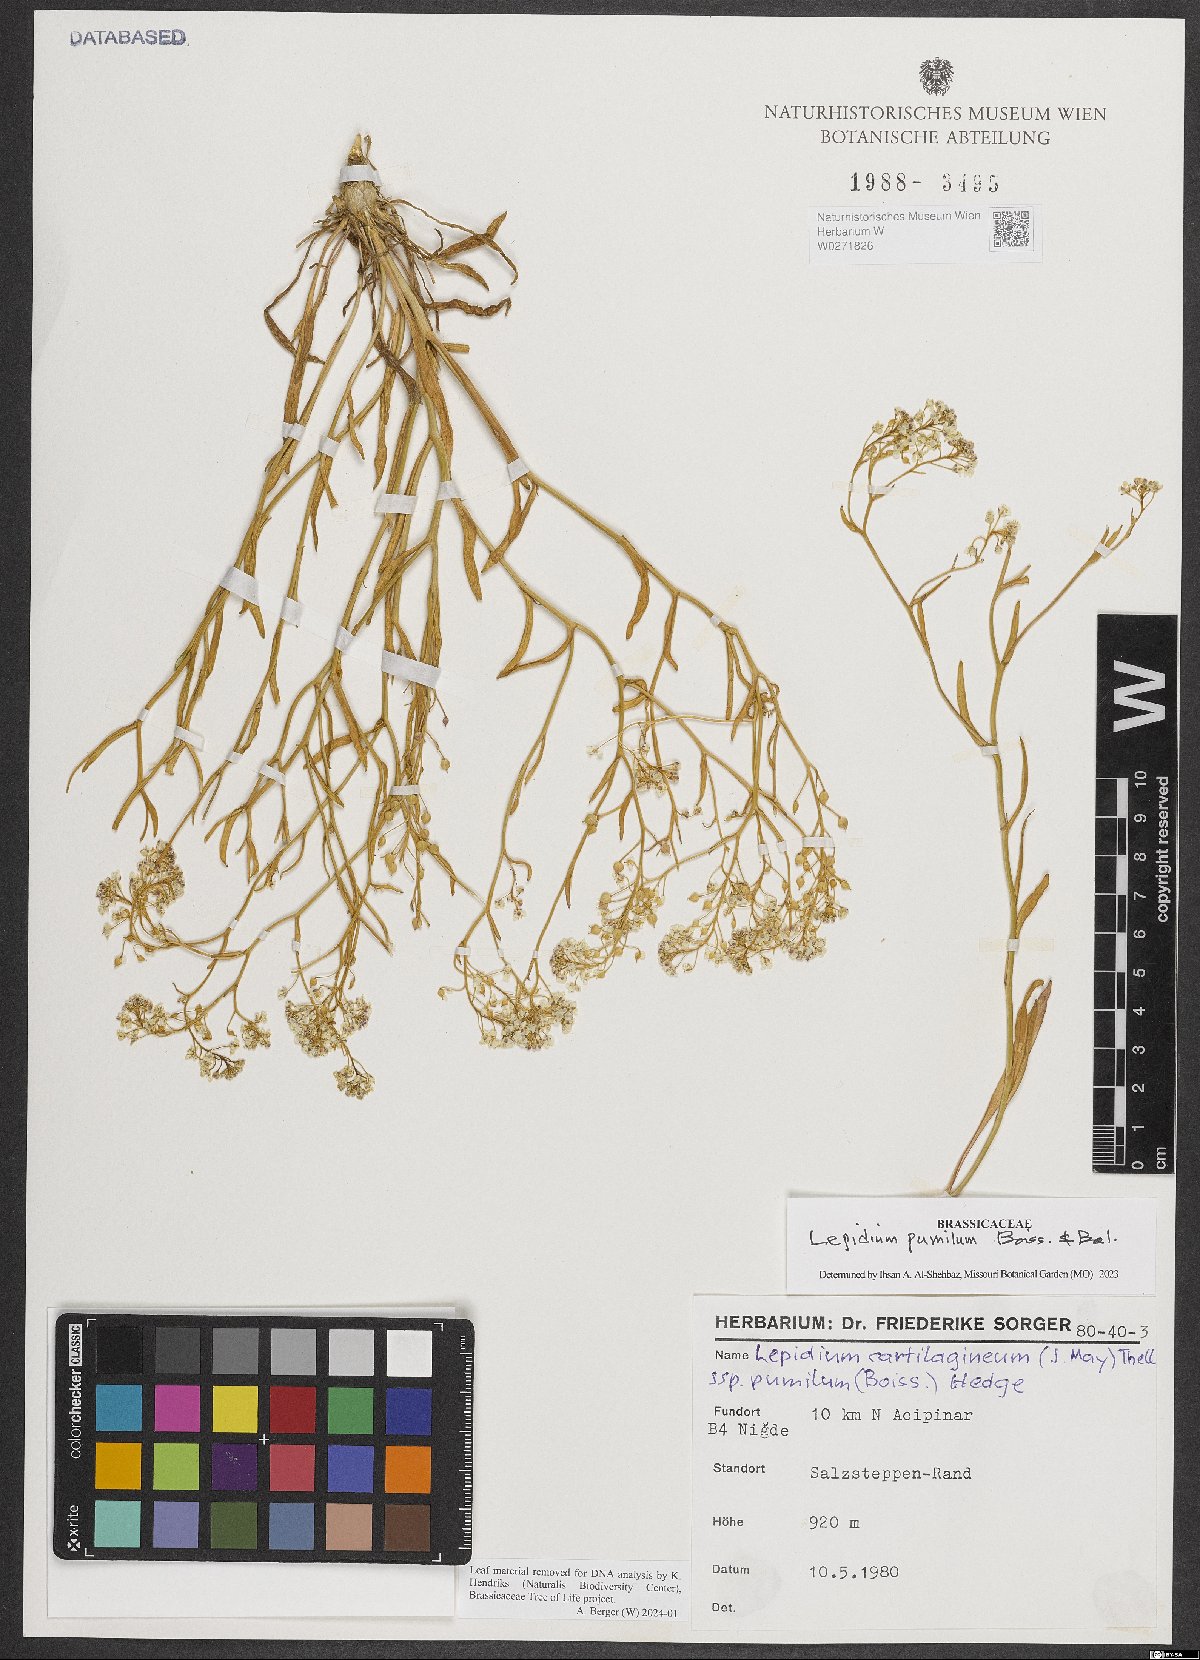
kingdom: Plantae
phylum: Tracheophyta
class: Magnoliopsida
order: Brassicales
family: Brassicaceae
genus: Lepidium
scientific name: Lepidium cartilagineum
